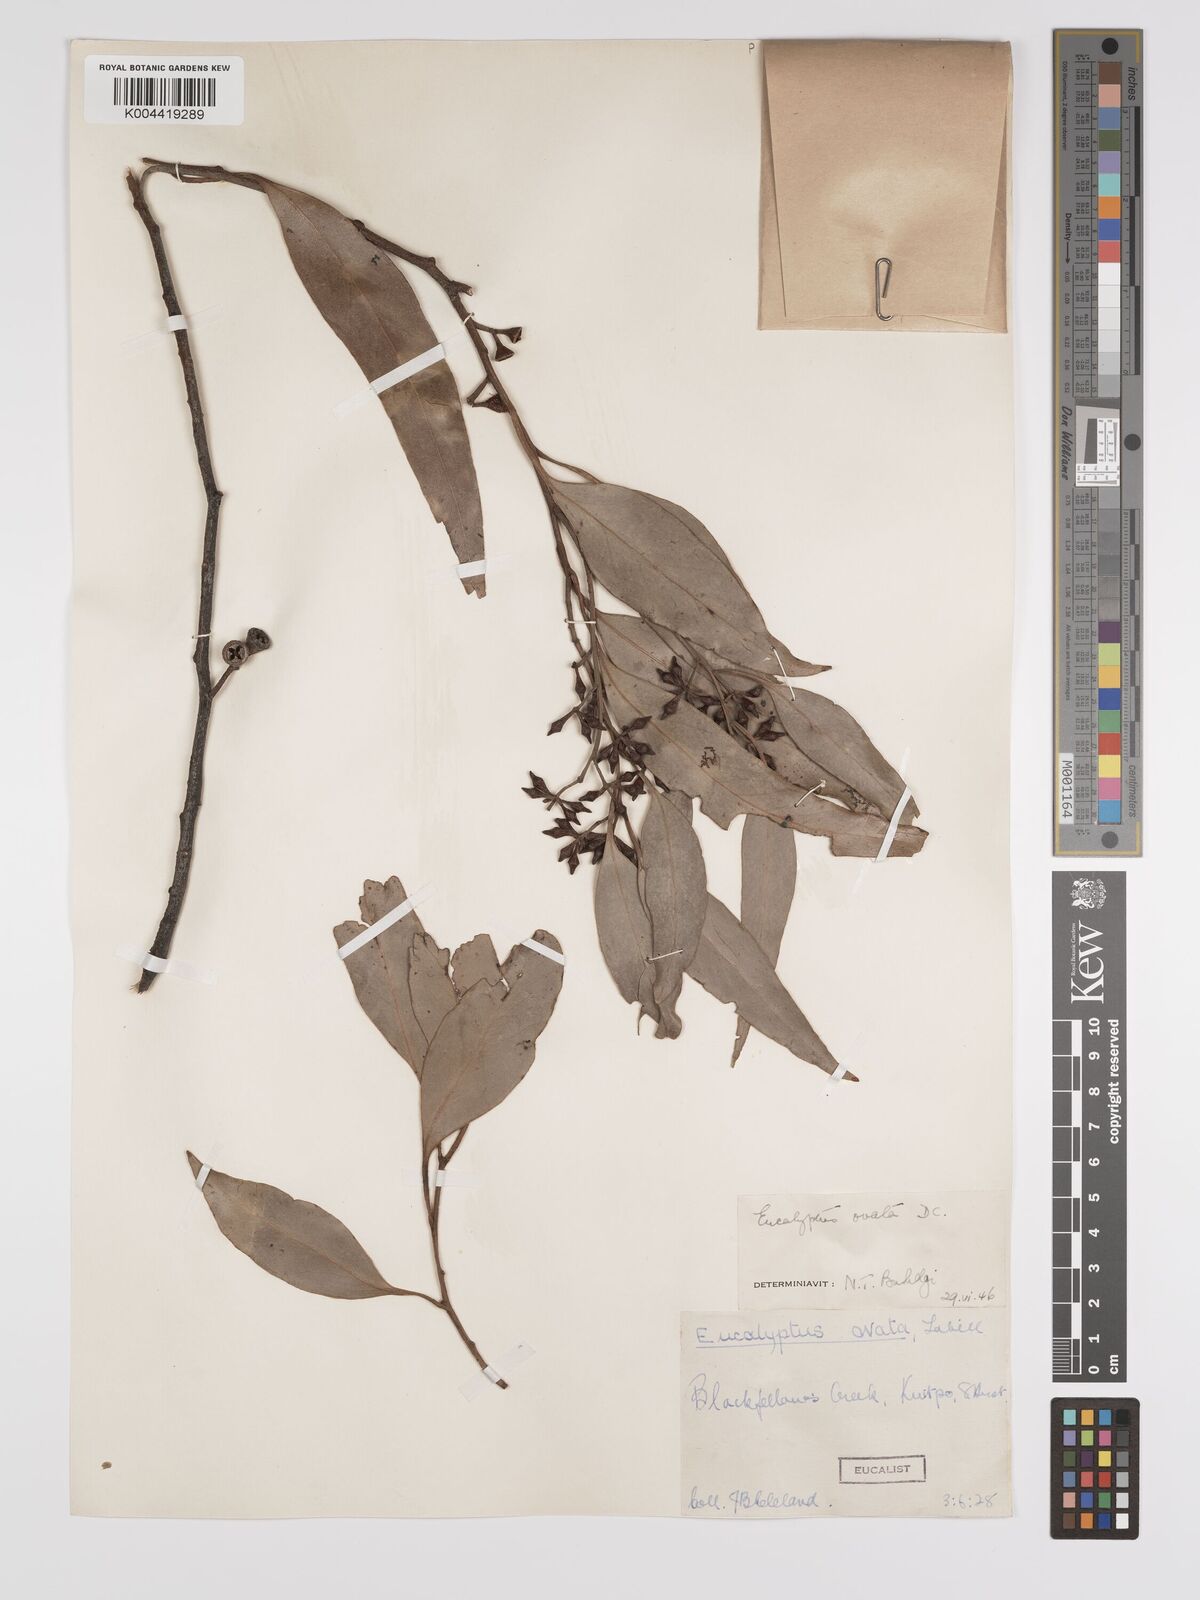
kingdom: Plantae
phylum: Tracheophyta
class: Magnoliopsida
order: Myrtales
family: Myrtaceae
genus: Eucalyptus
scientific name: Eucalyptus ovata
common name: Black-gum
